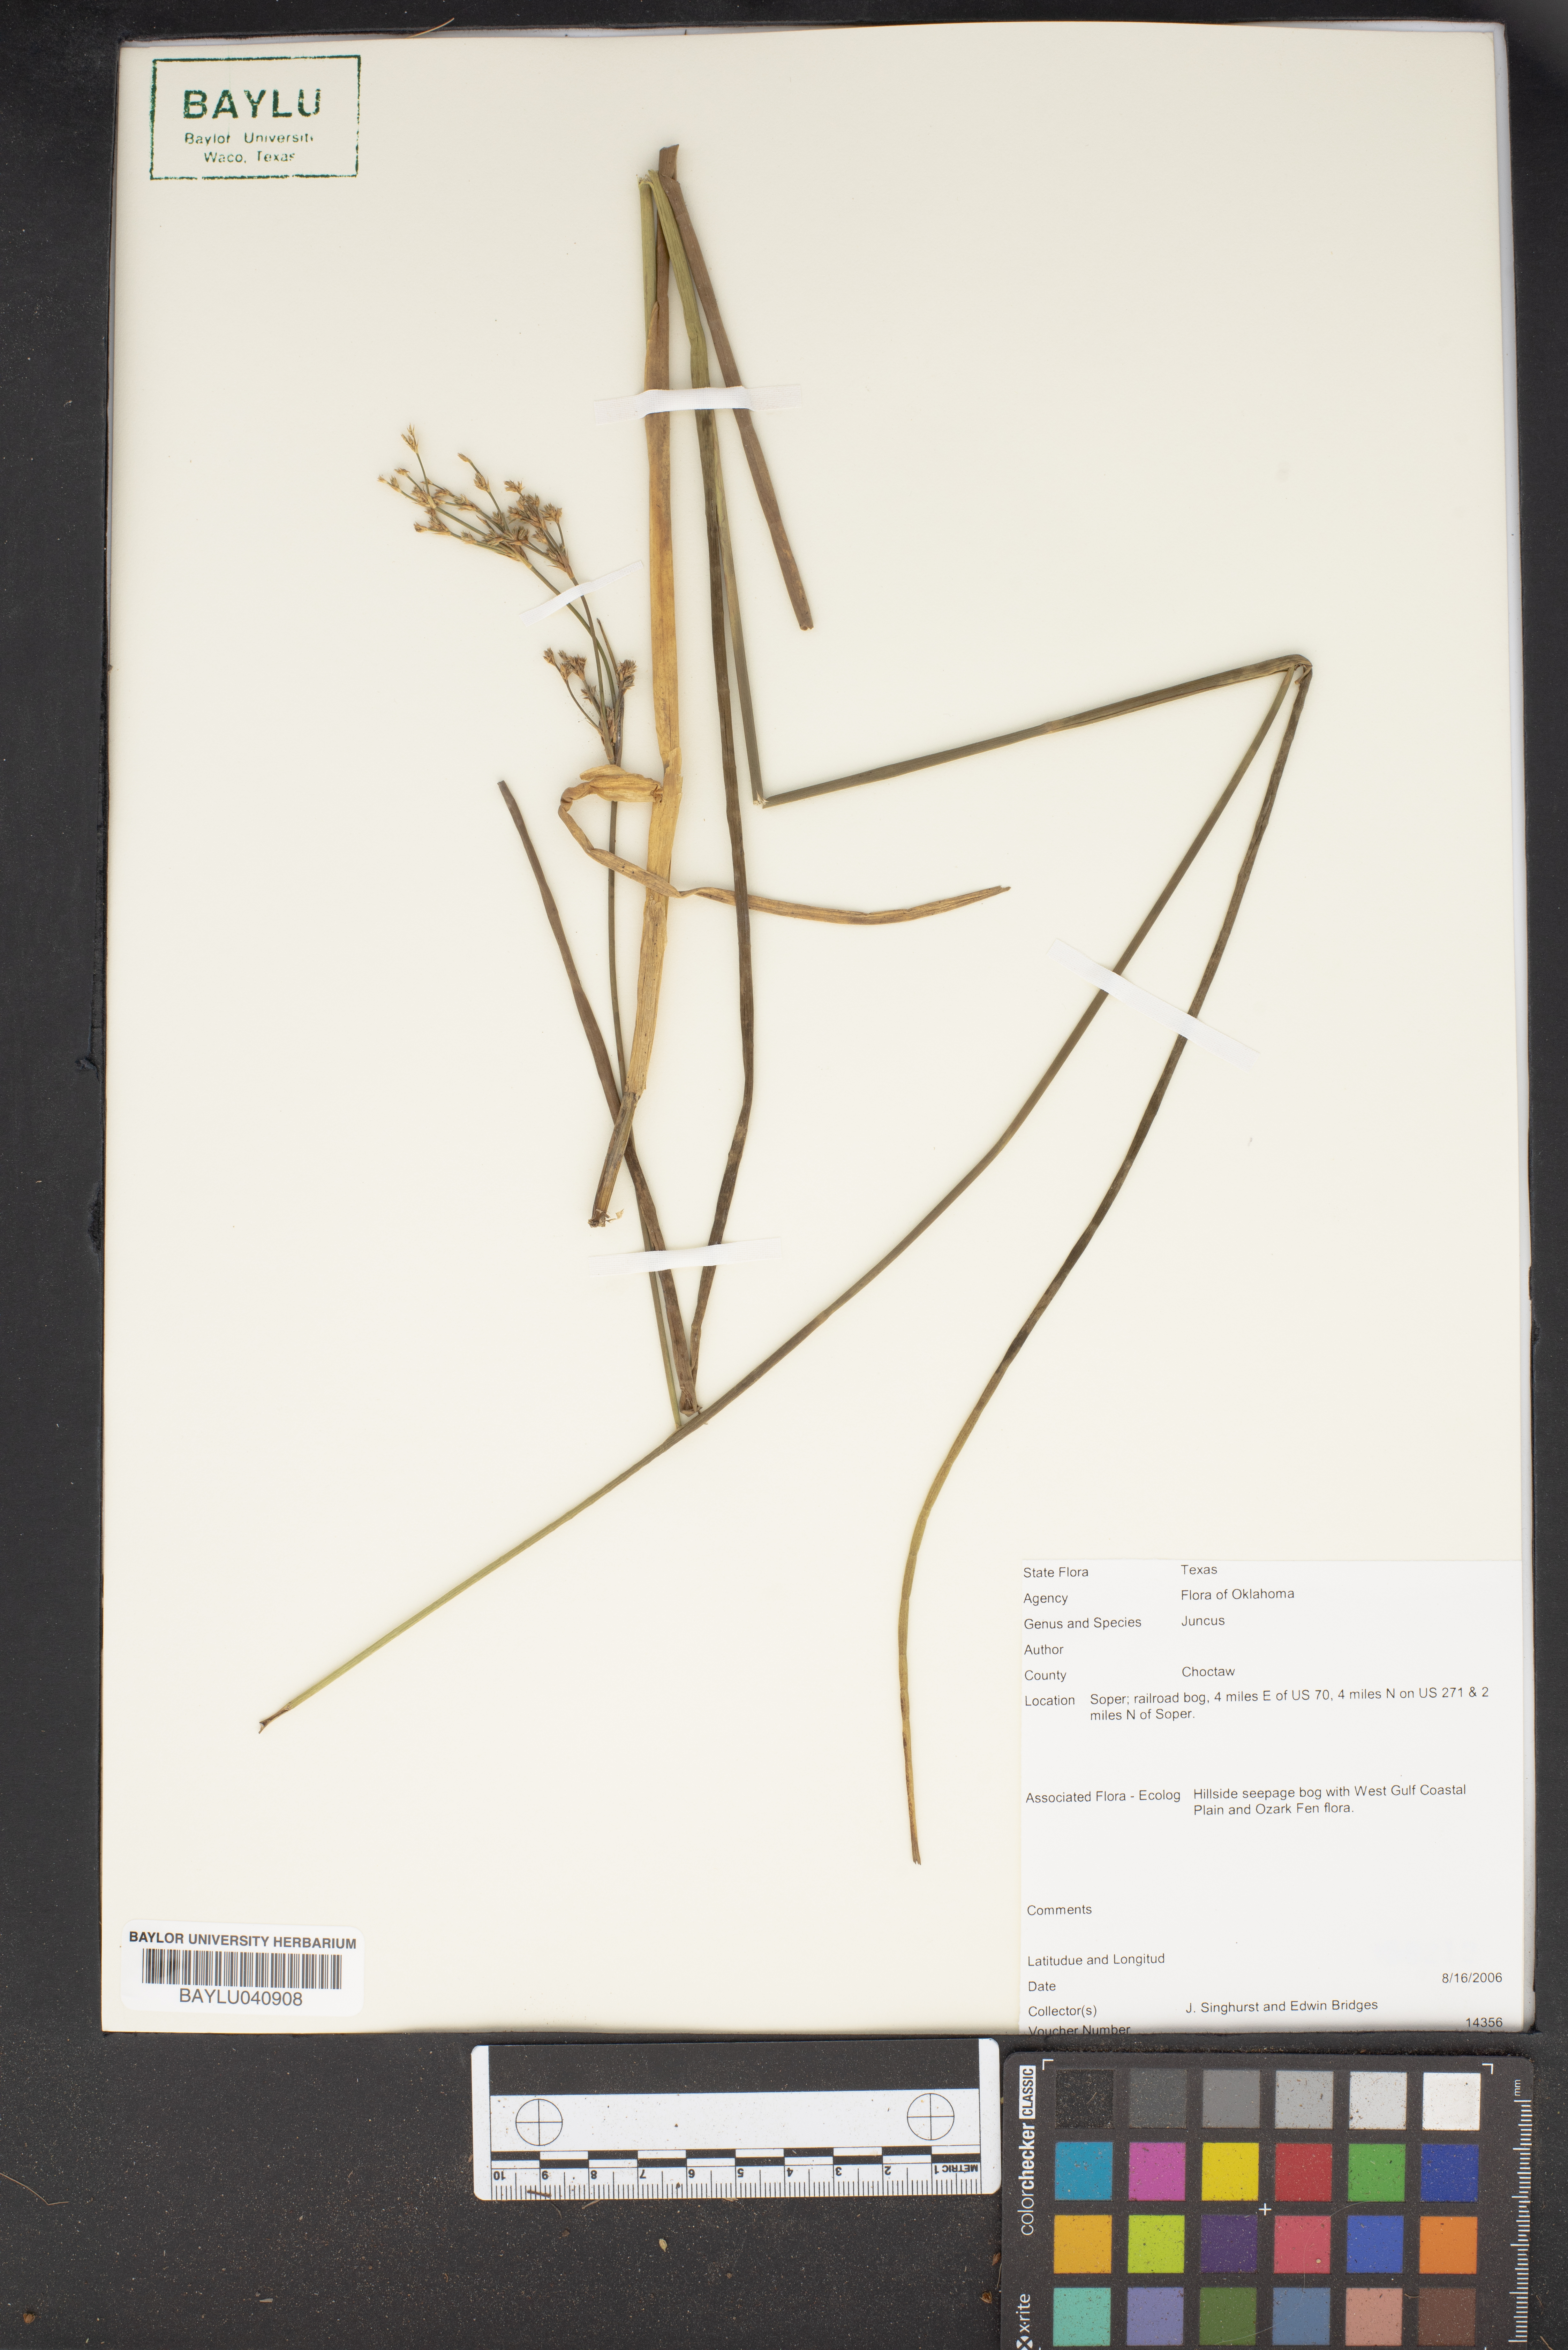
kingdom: Plantae
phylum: Tracheophyta
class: Liliopsida
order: Poales
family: Juncaceae
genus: Juncus
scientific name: Juncus
